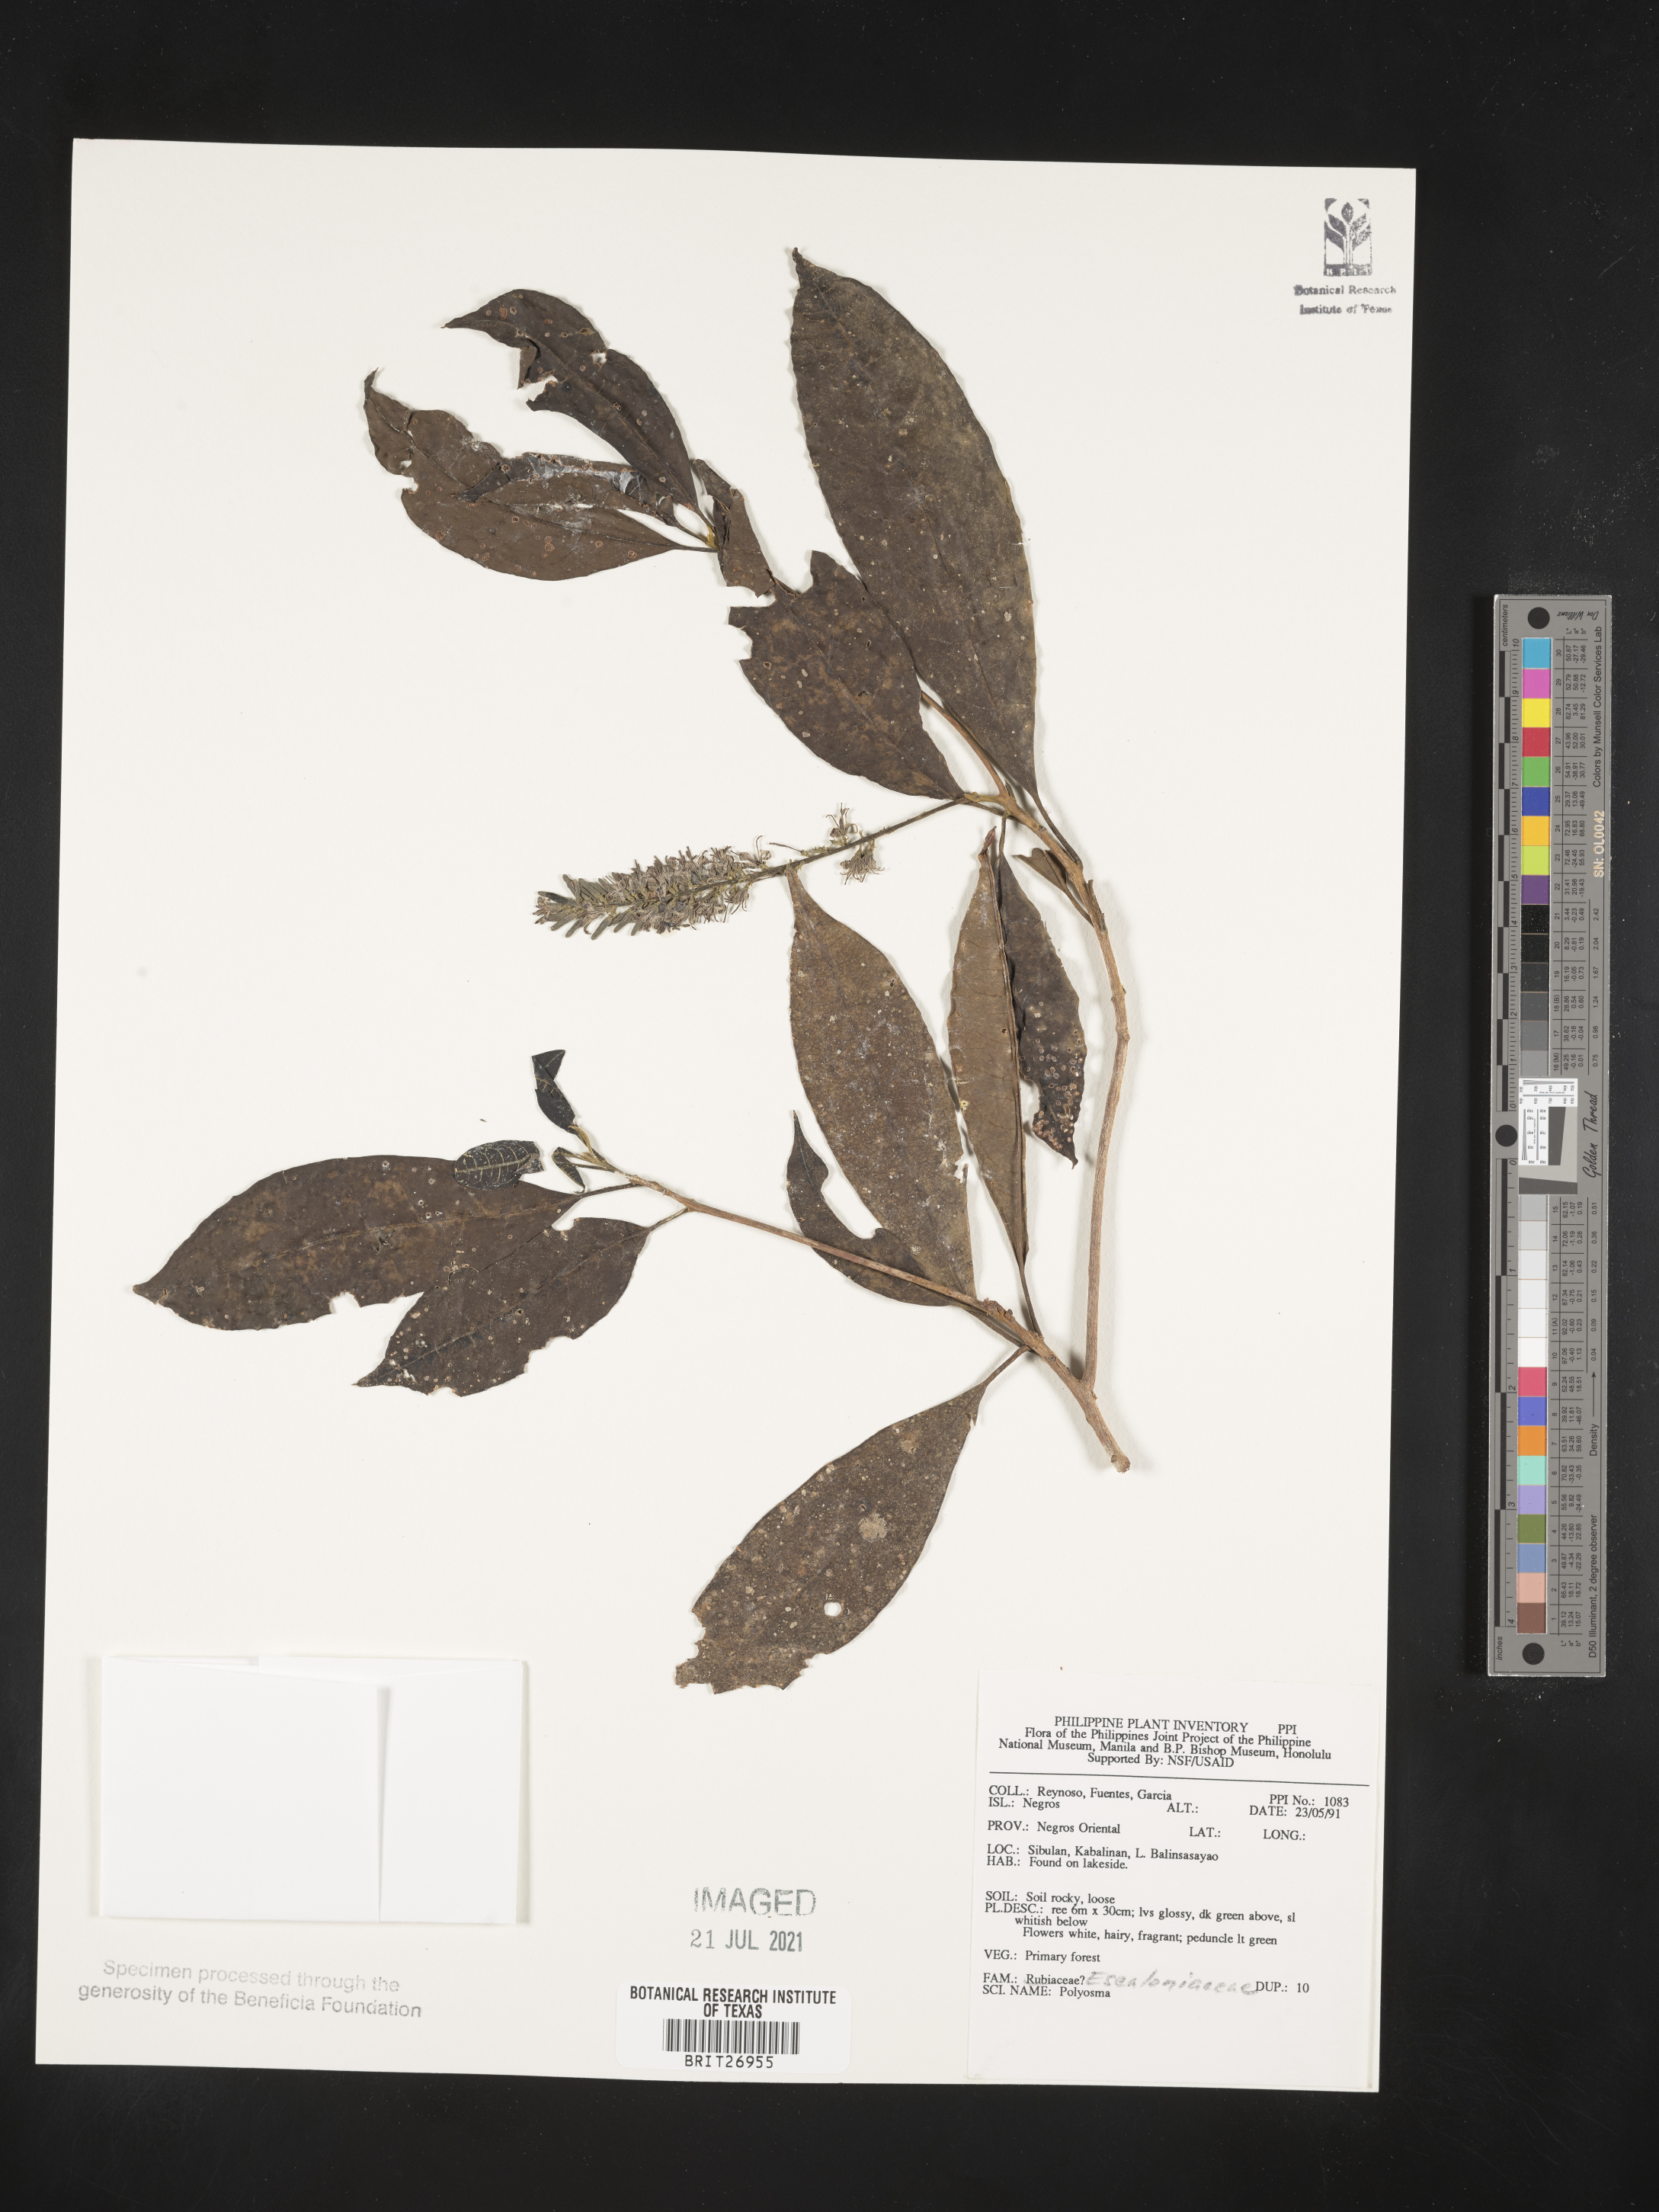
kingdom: Plantae
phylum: Tracheophyta
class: Magnoliopsida
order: Escalloniales
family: Escalloniaceae
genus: Polyosma
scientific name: Polyosma
